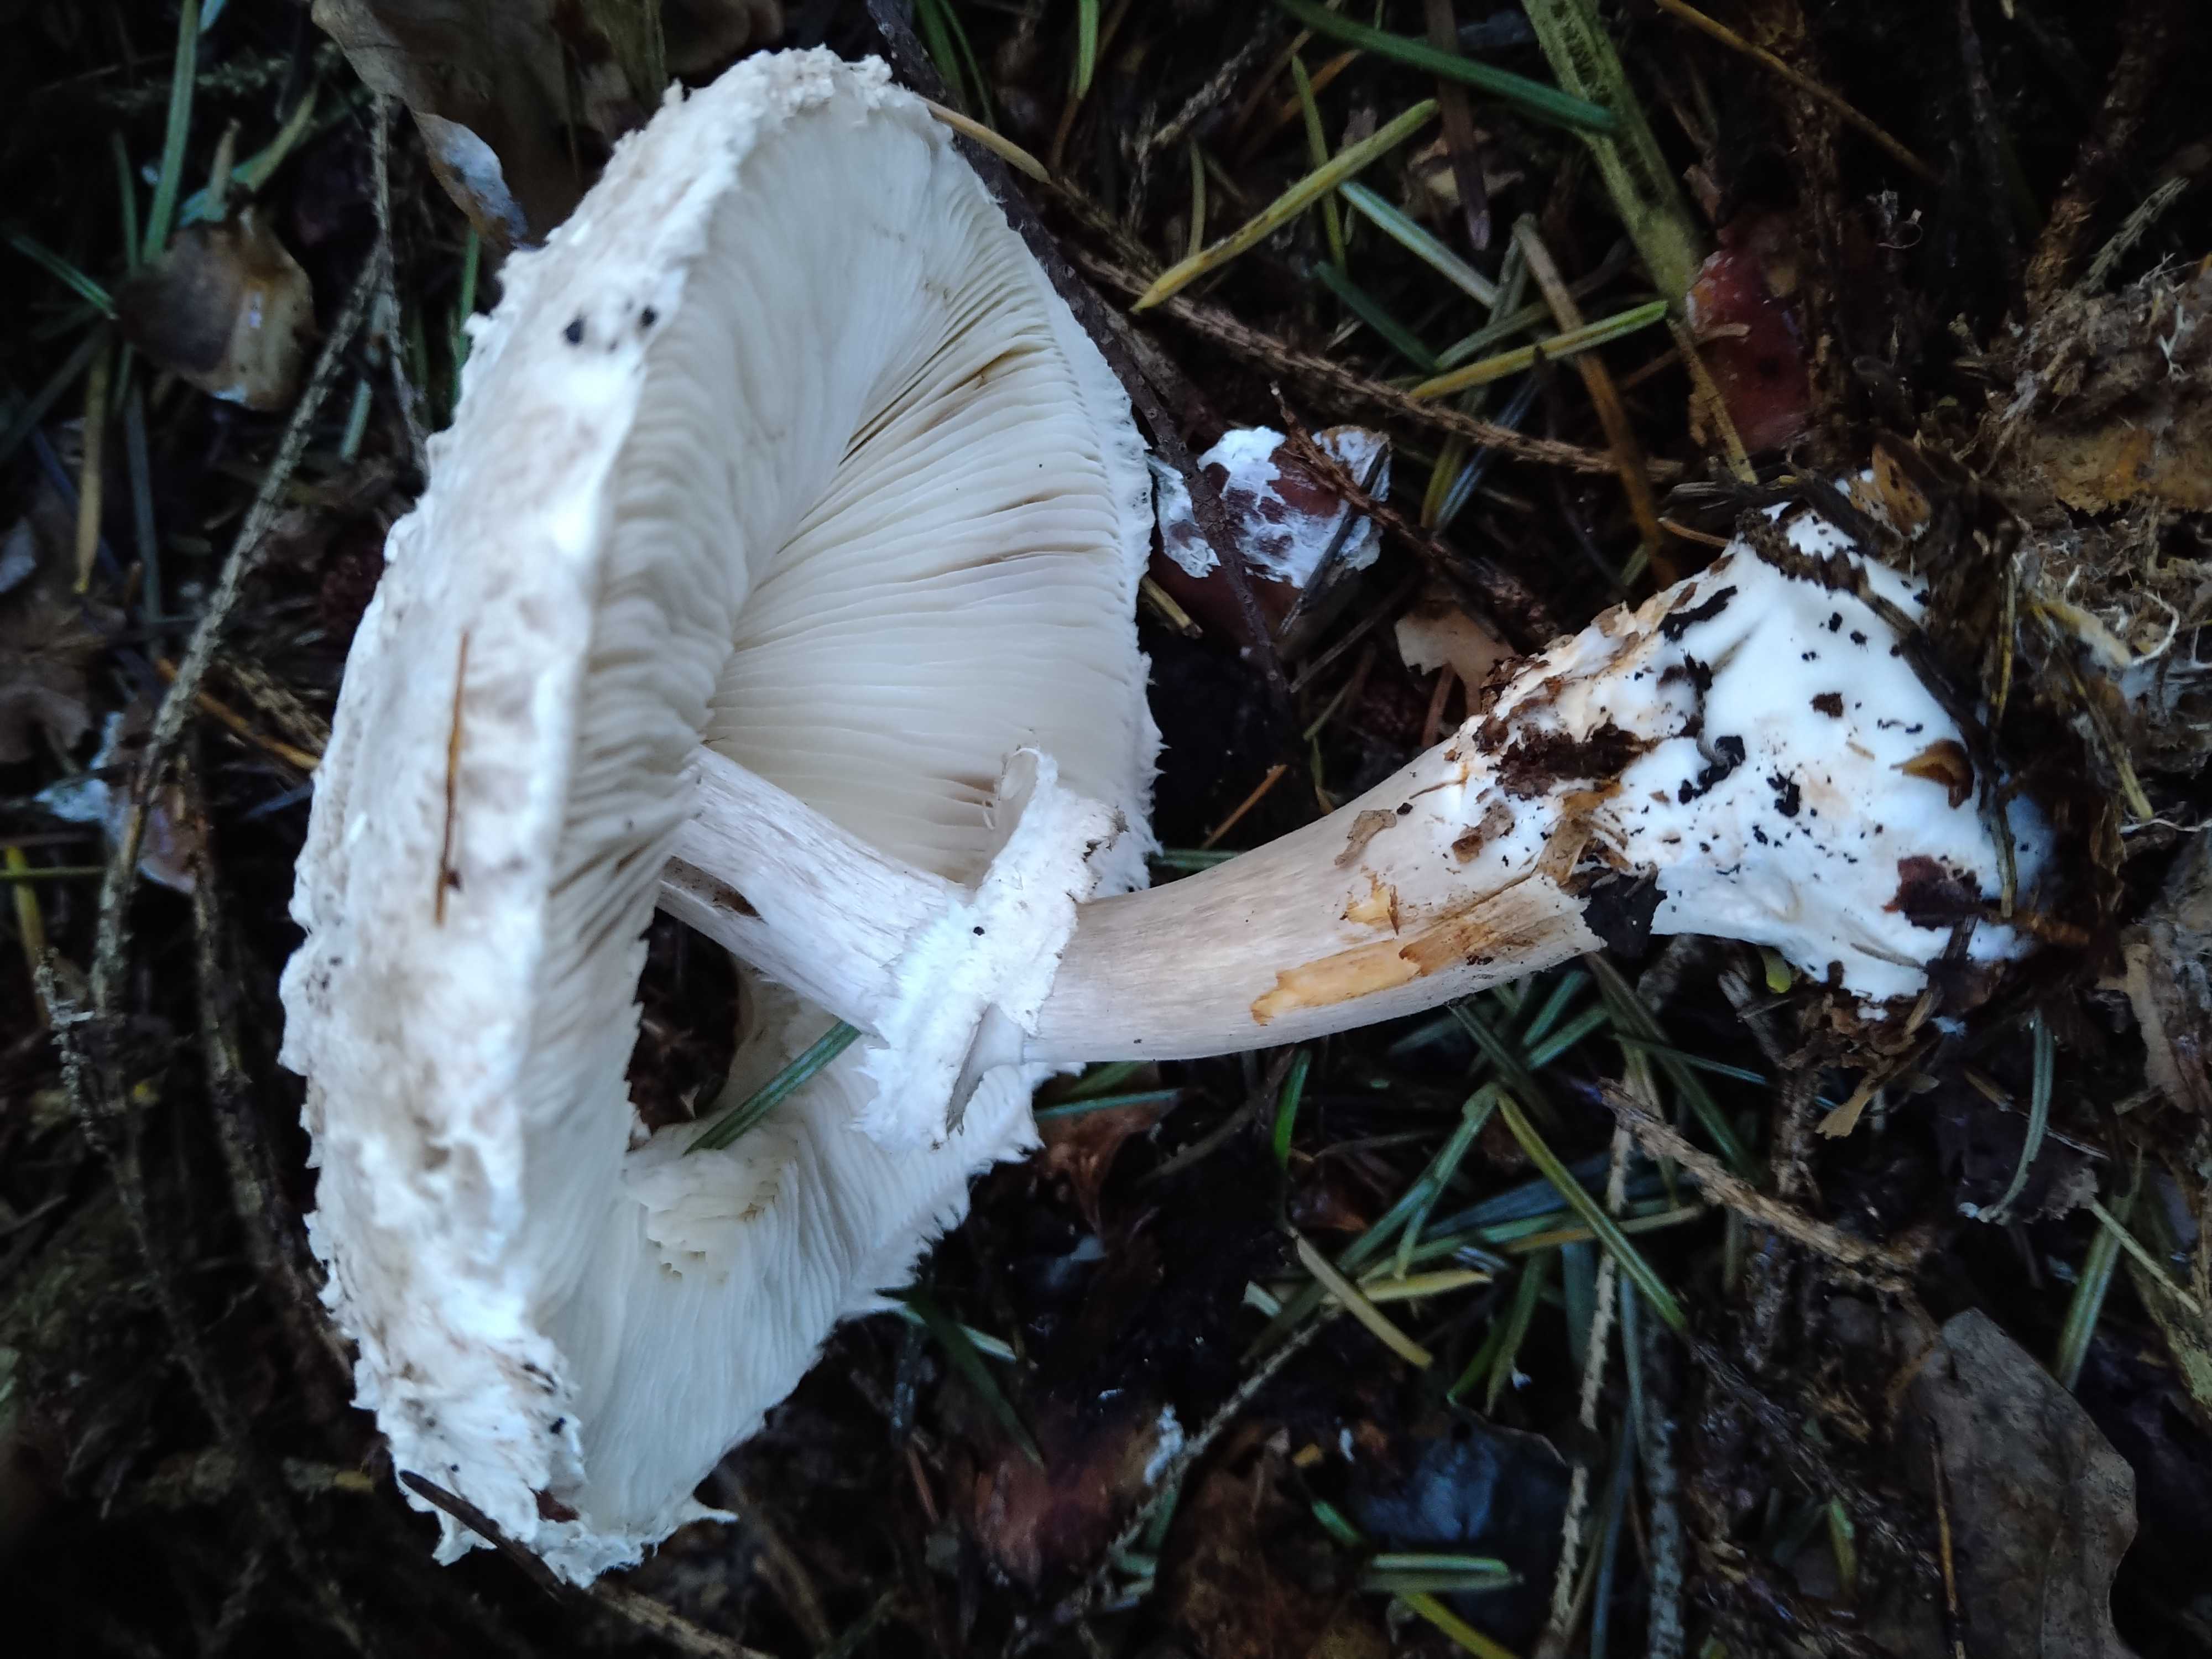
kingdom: Fungi
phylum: Basidiomycota
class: Agaricomycetes
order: Agaricales
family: Agaricaceae
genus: Chlorophyllum
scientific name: Chlorophyllum olivieri
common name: almindelig rabarberhat
